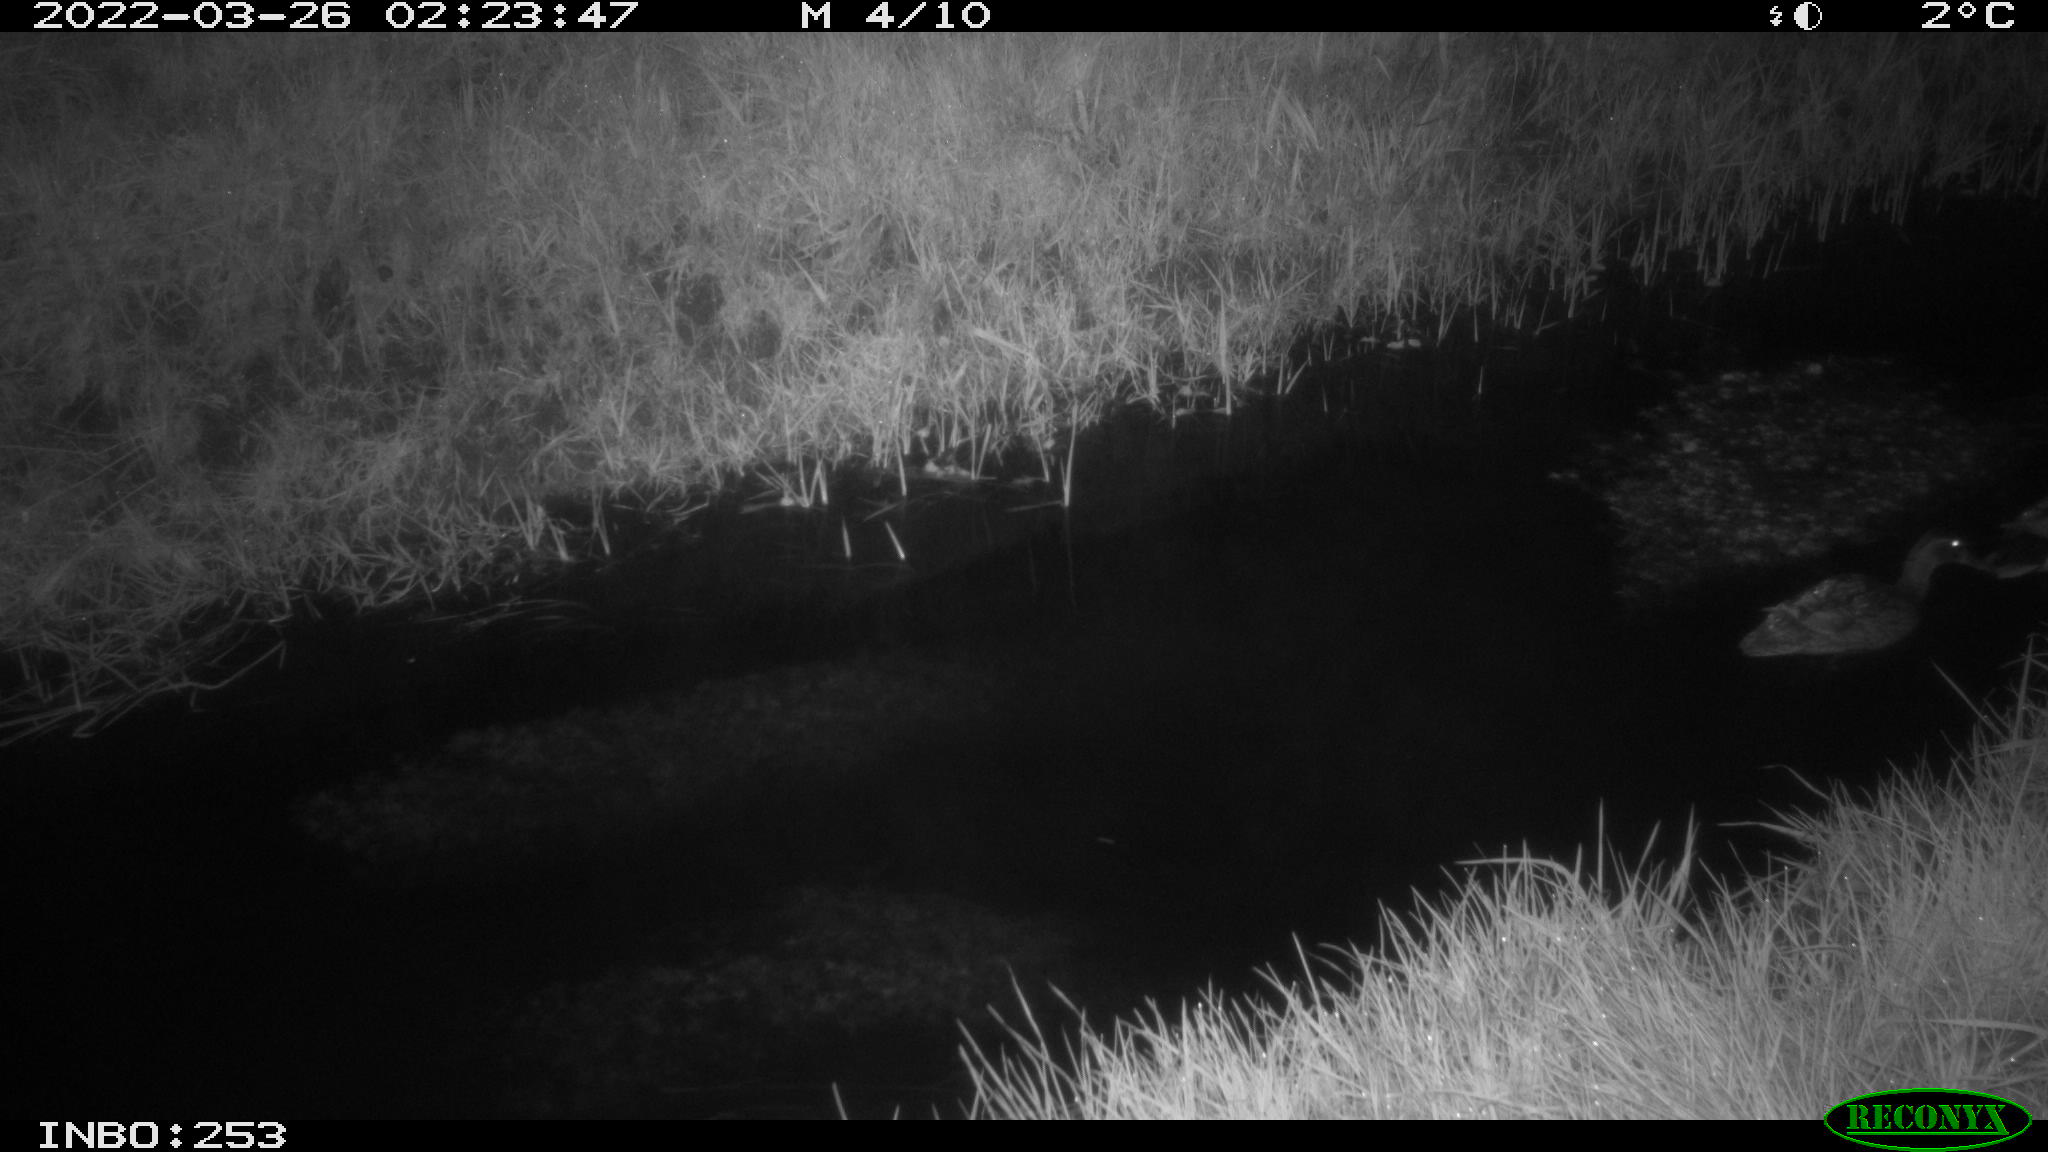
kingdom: Animalia
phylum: Chordata
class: Aves
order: Anseriformes
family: Anatidae
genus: Anas
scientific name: Anas platyrhynchos
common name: Mallard
